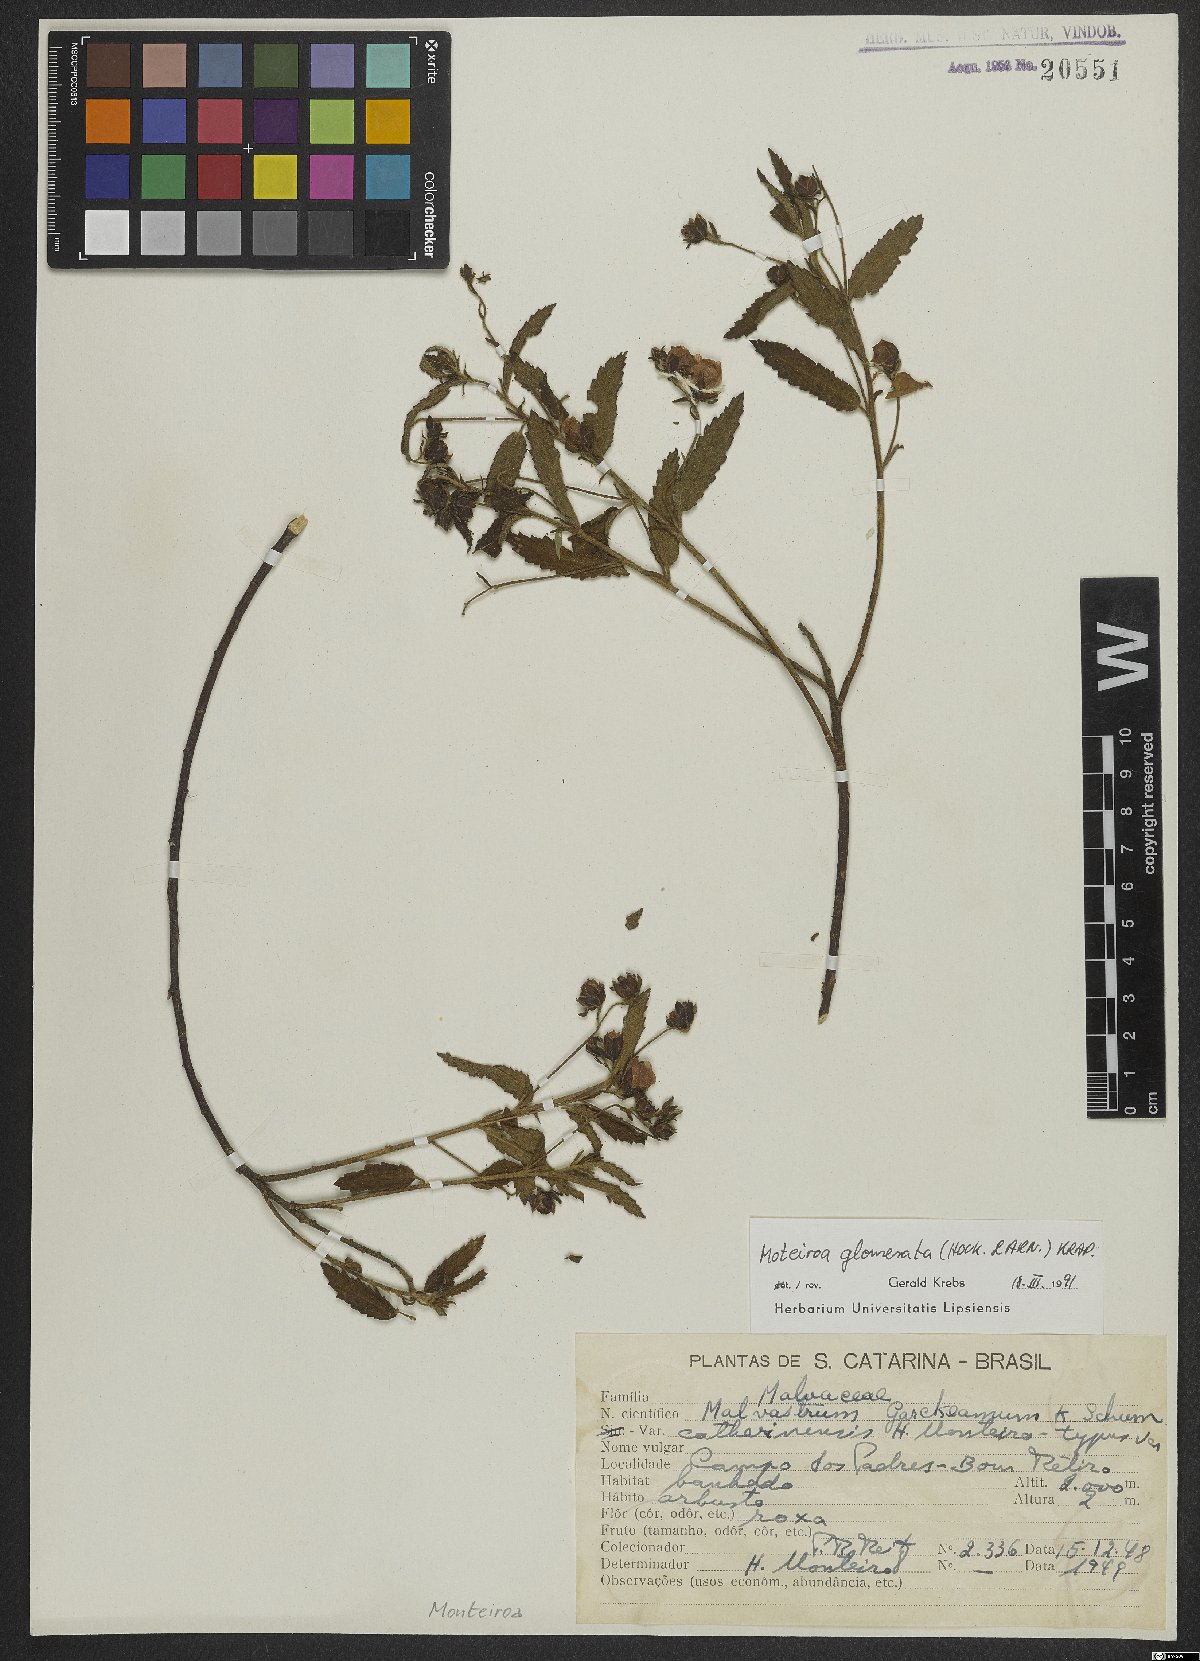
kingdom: Plantae
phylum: Tracheophyta
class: Magnoliopsida
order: Malvales
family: Malvaceae
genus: Monteiroa
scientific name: Monteiroa glomerata
